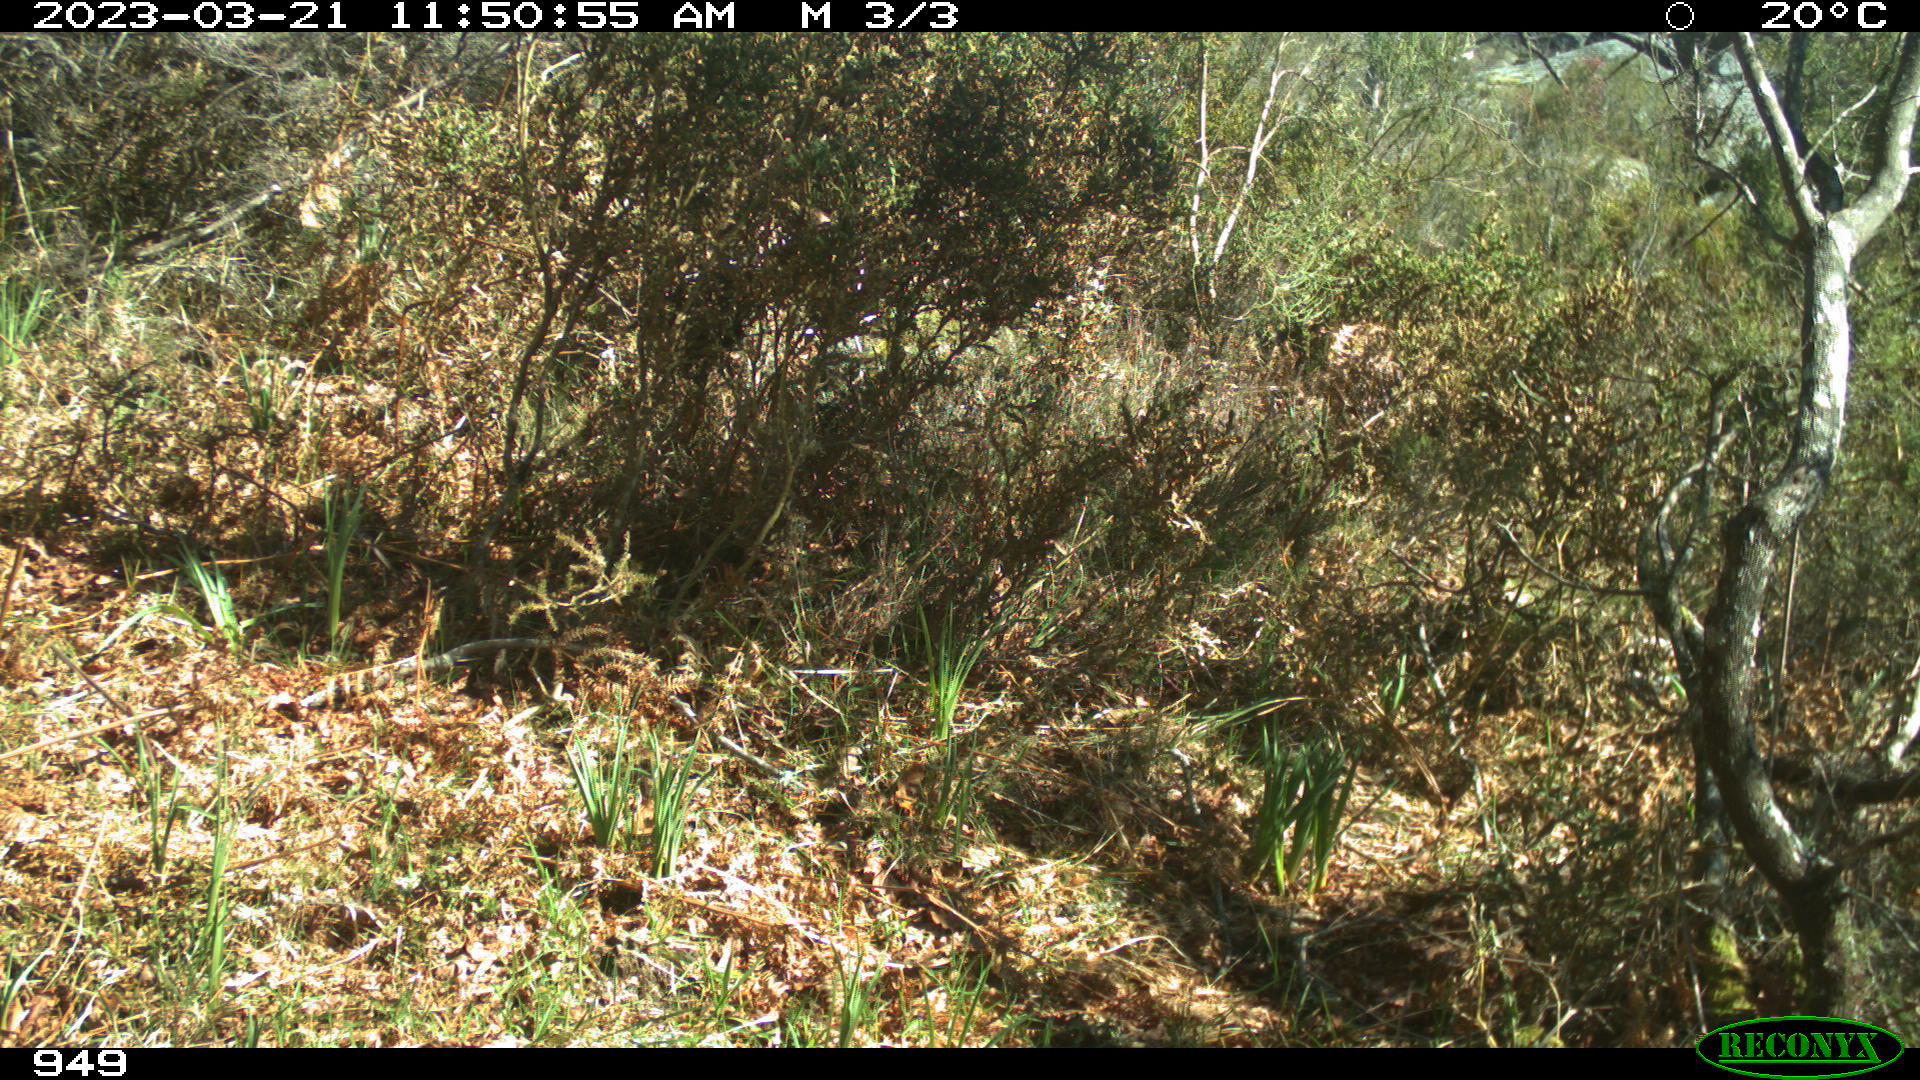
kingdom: Animalia
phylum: Chordata
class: Mammalia
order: Artiodactyla
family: Suidae
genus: Sus
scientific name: Sus scrofa
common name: Wild boar
